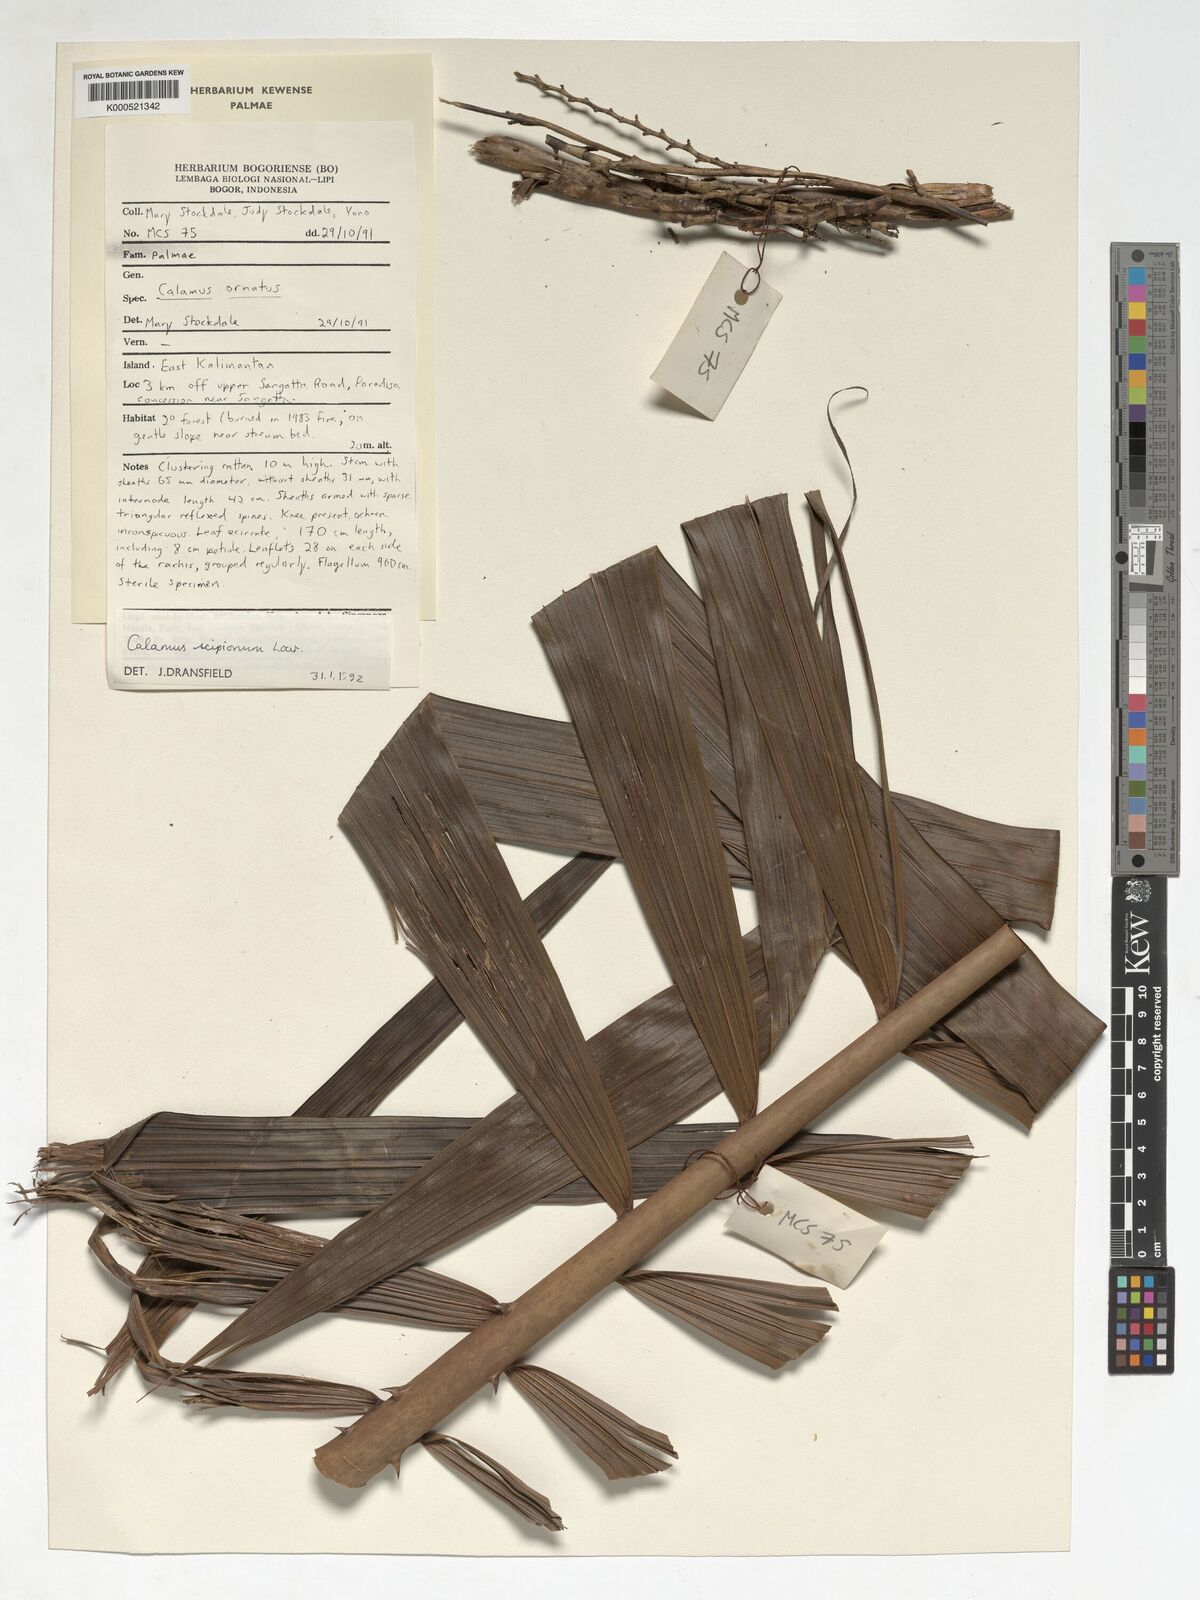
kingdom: Plantae
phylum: Tracheophyta
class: Liliopsida
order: Arecales
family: Arecaceae
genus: Calamus
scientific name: Calamus scipionum
